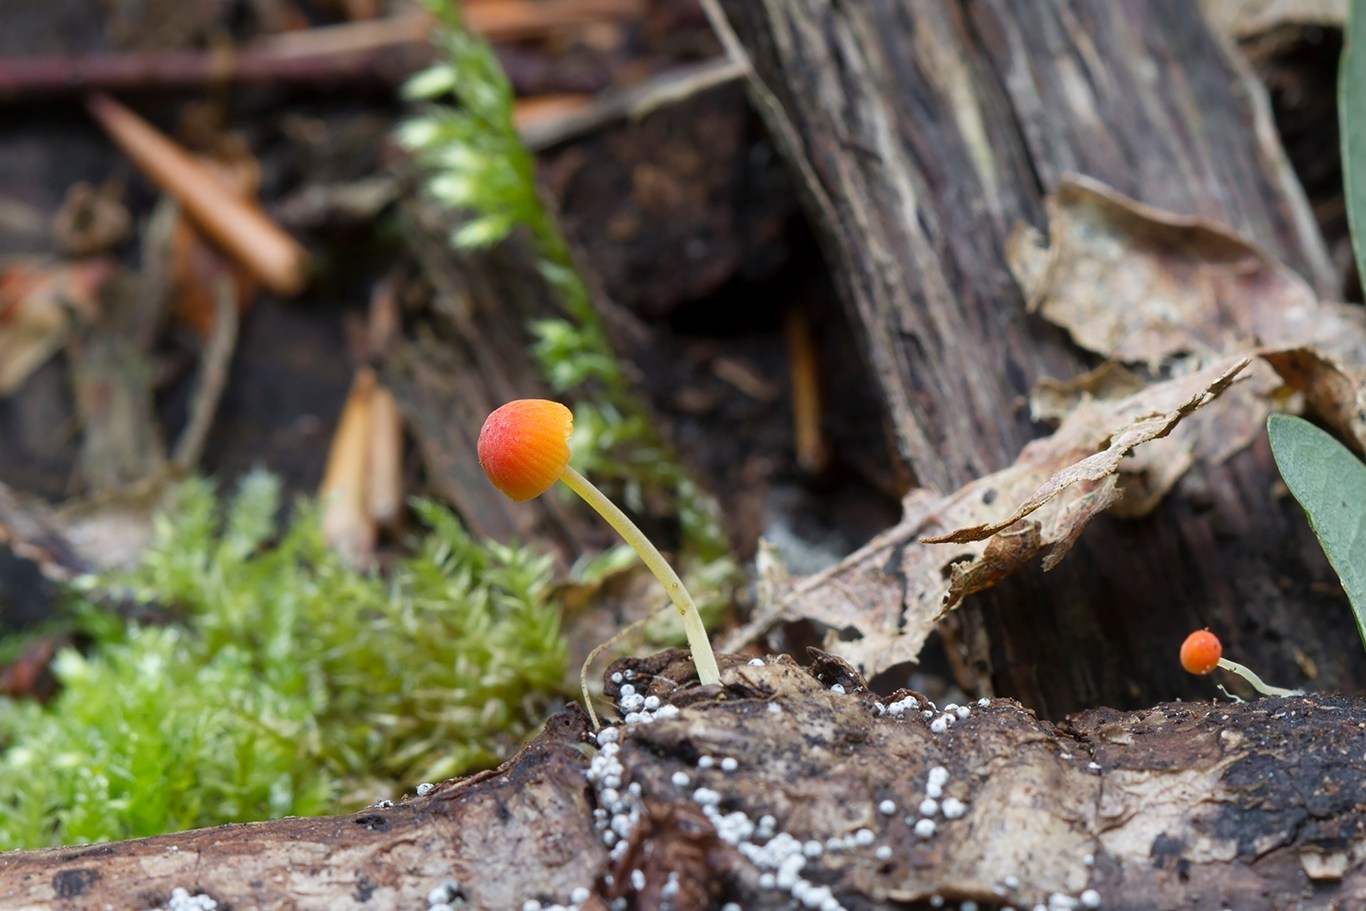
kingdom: Fungi
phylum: Basidiomycota
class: Agaricomycetes
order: Agaricales
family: Mycenaceae
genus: Mycena
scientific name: Mycena acicula
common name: orange huesvamp
